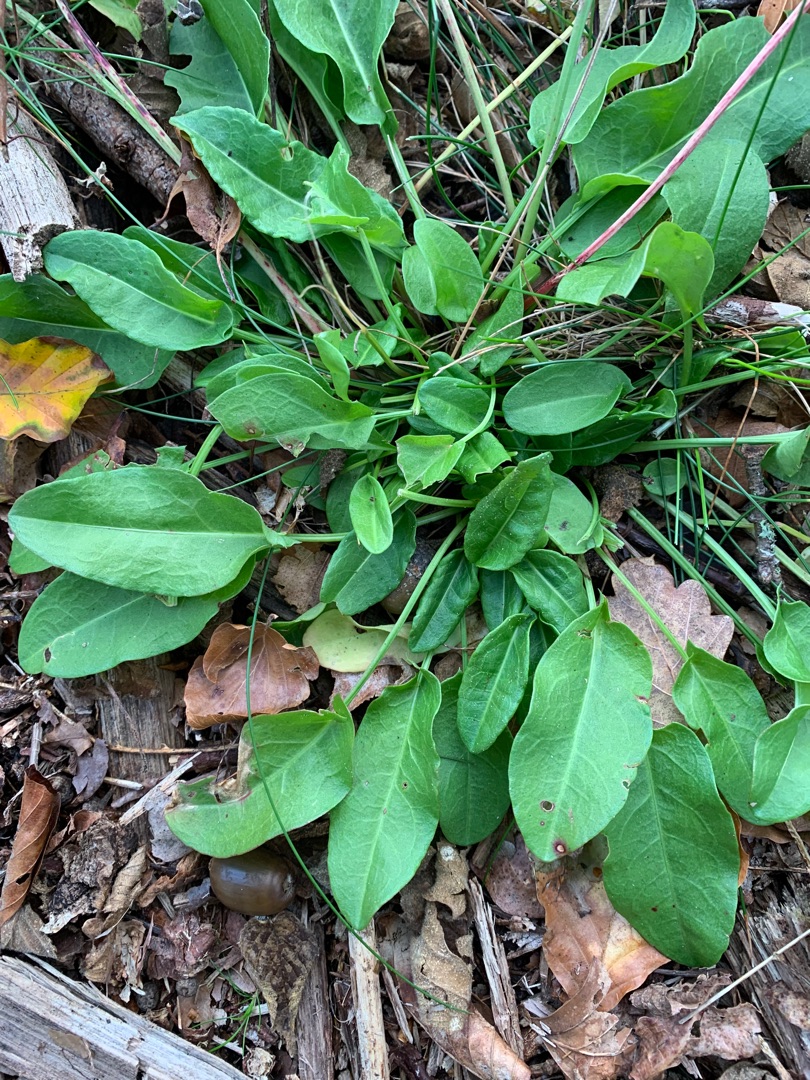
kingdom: Plantae
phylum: Tracheophyta
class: Magnoliopsida
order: Caryophyllales
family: Polygonaceae
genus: Rumex
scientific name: Rumex acetosa
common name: Almindelig syre
